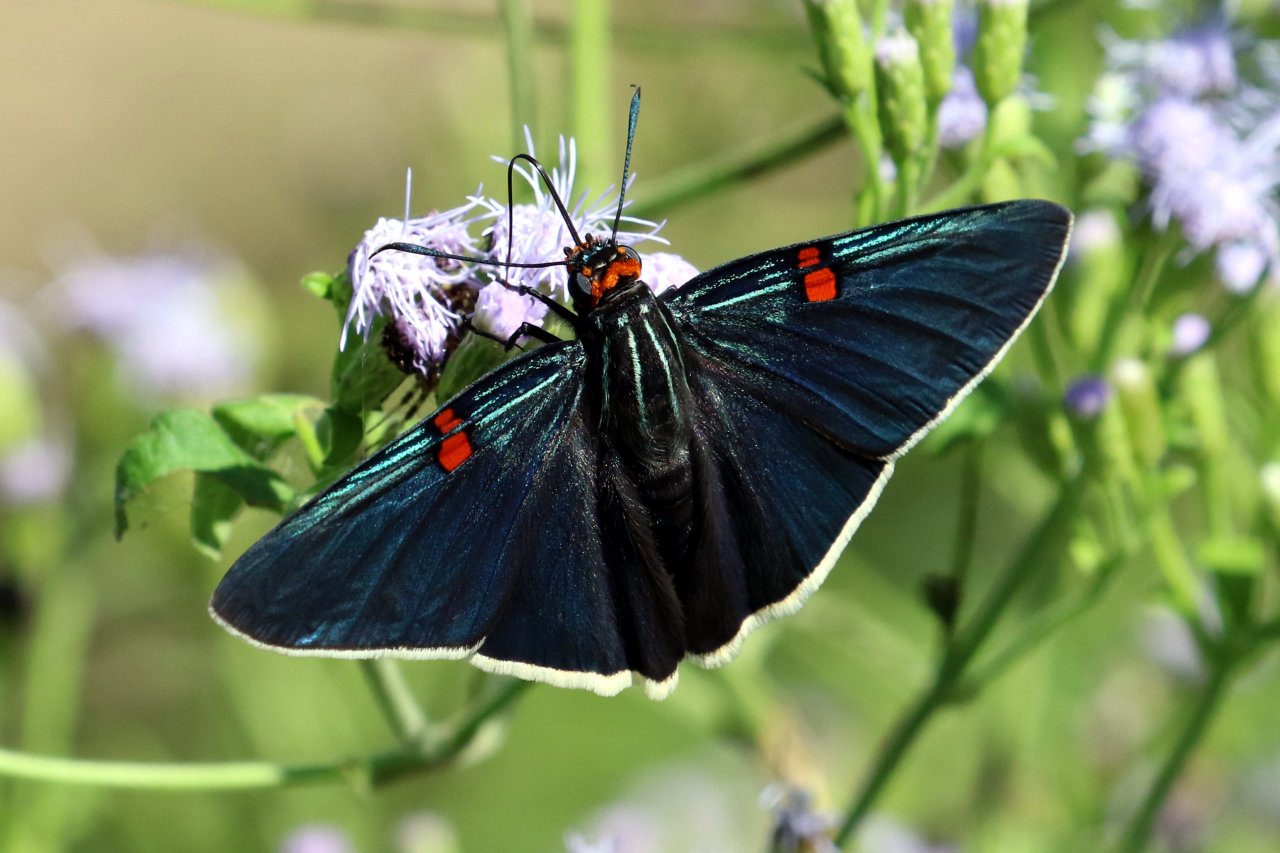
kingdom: Animalia
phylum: Arthropoda
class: Insecta
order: Lepidoptera
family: Hesperiidae
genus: Phocides
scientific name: Phocides polybius
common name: Guava Skipper
